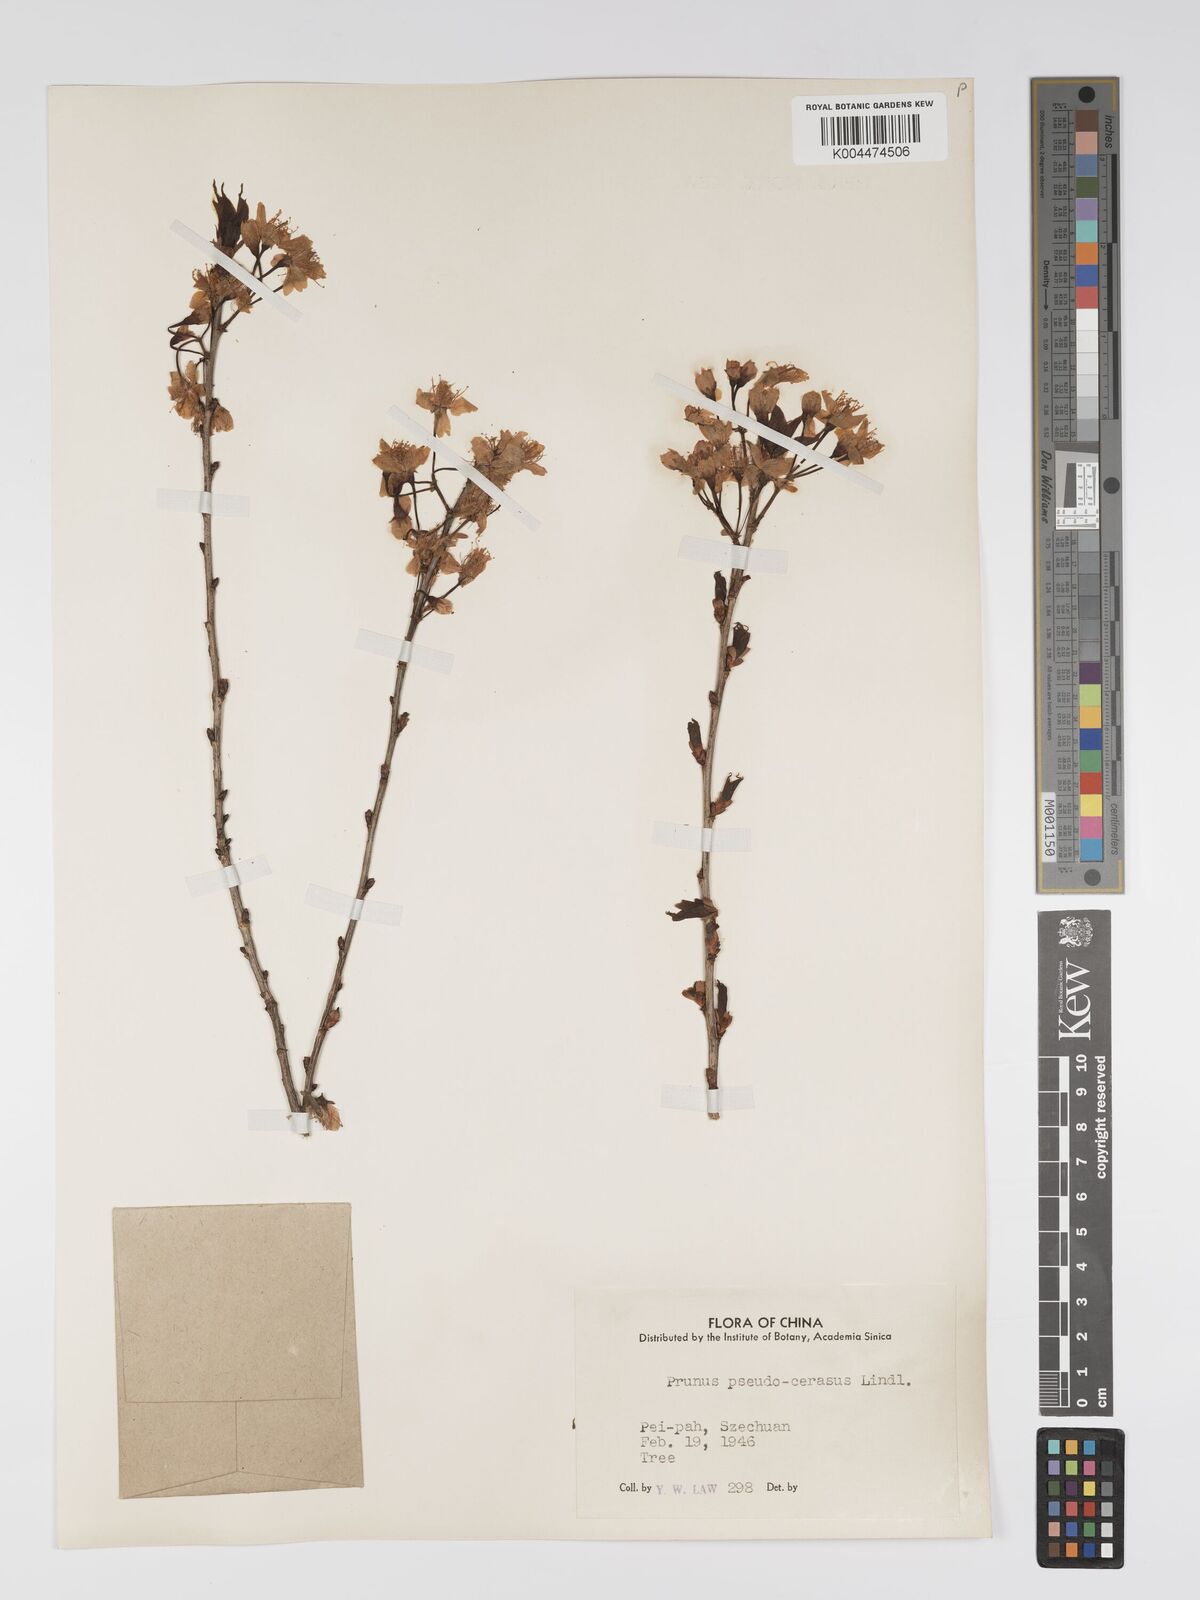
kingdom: Plantae
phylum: Tracheophyta
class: Magnoliopsida
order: Rosales
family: Rosaceae
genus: Prunus
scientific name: Prunus
